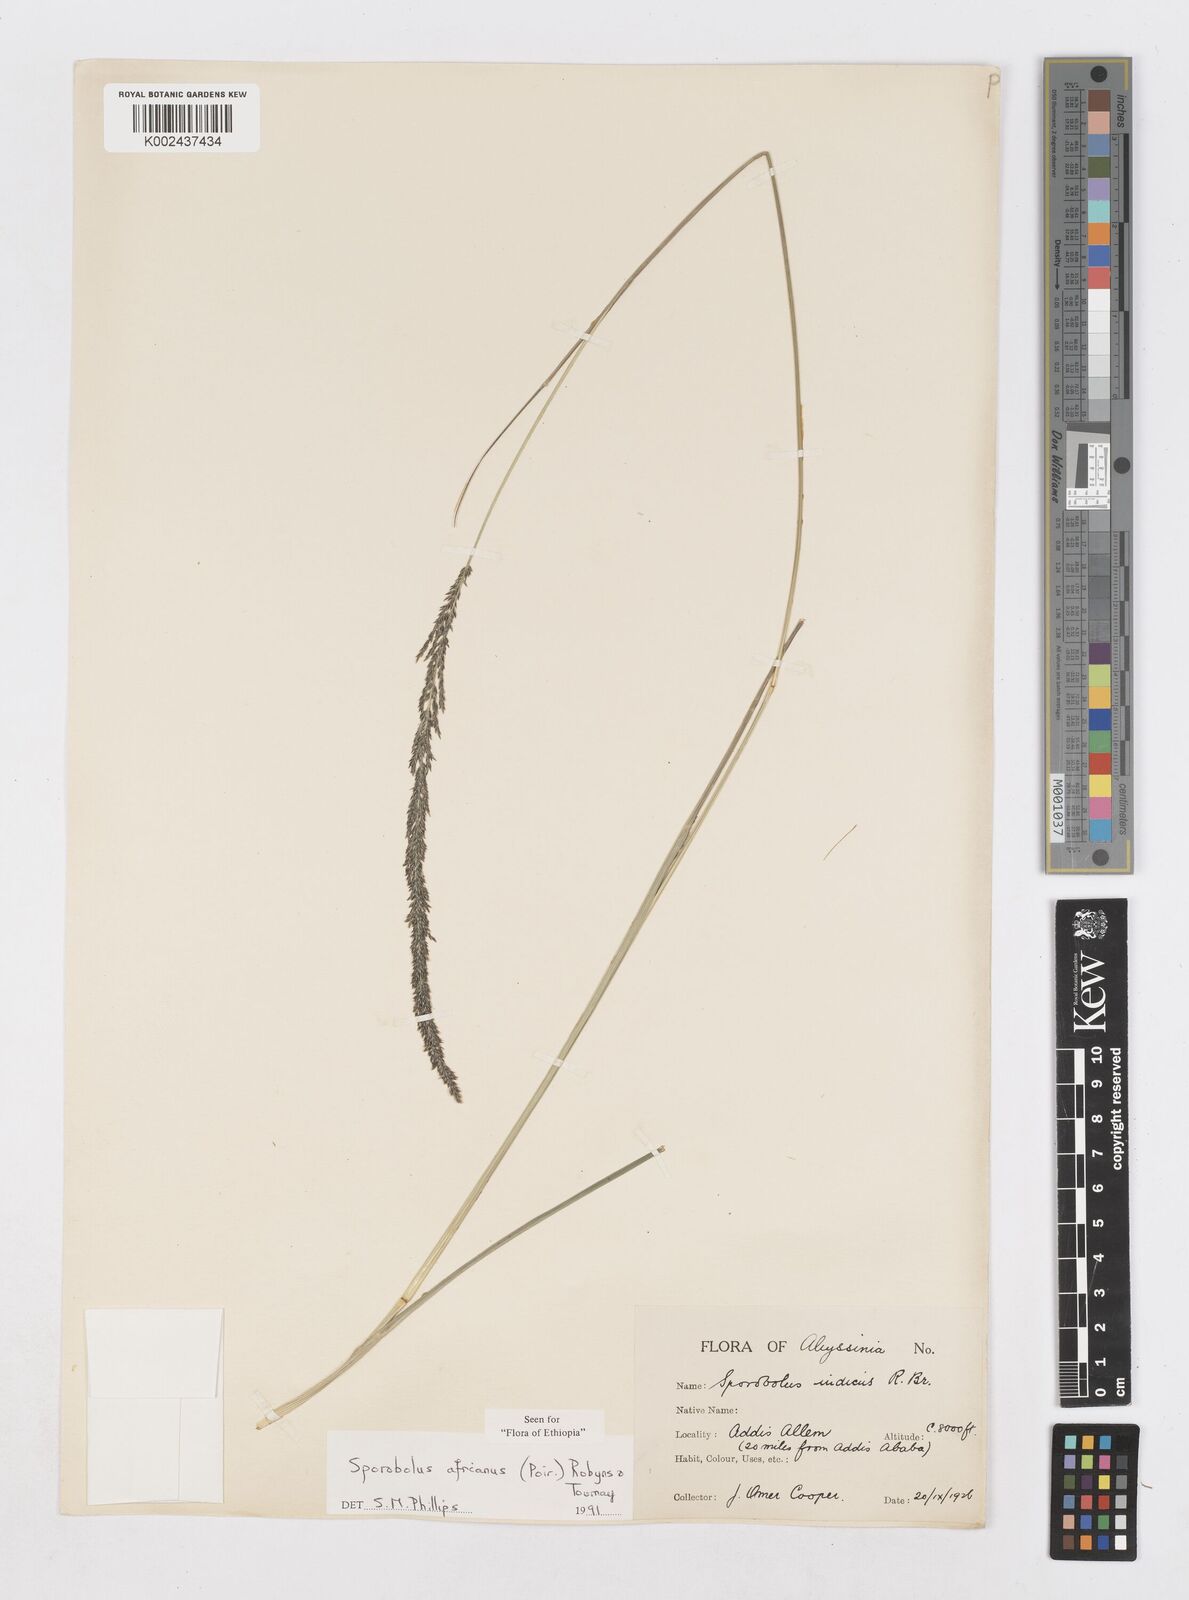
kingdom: Plantae
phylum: Tracheophyta
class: Liliopsida
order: Poales
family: Poaceae
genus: Sporobolus
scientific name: Sporobolus africanus
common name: African dropseed
